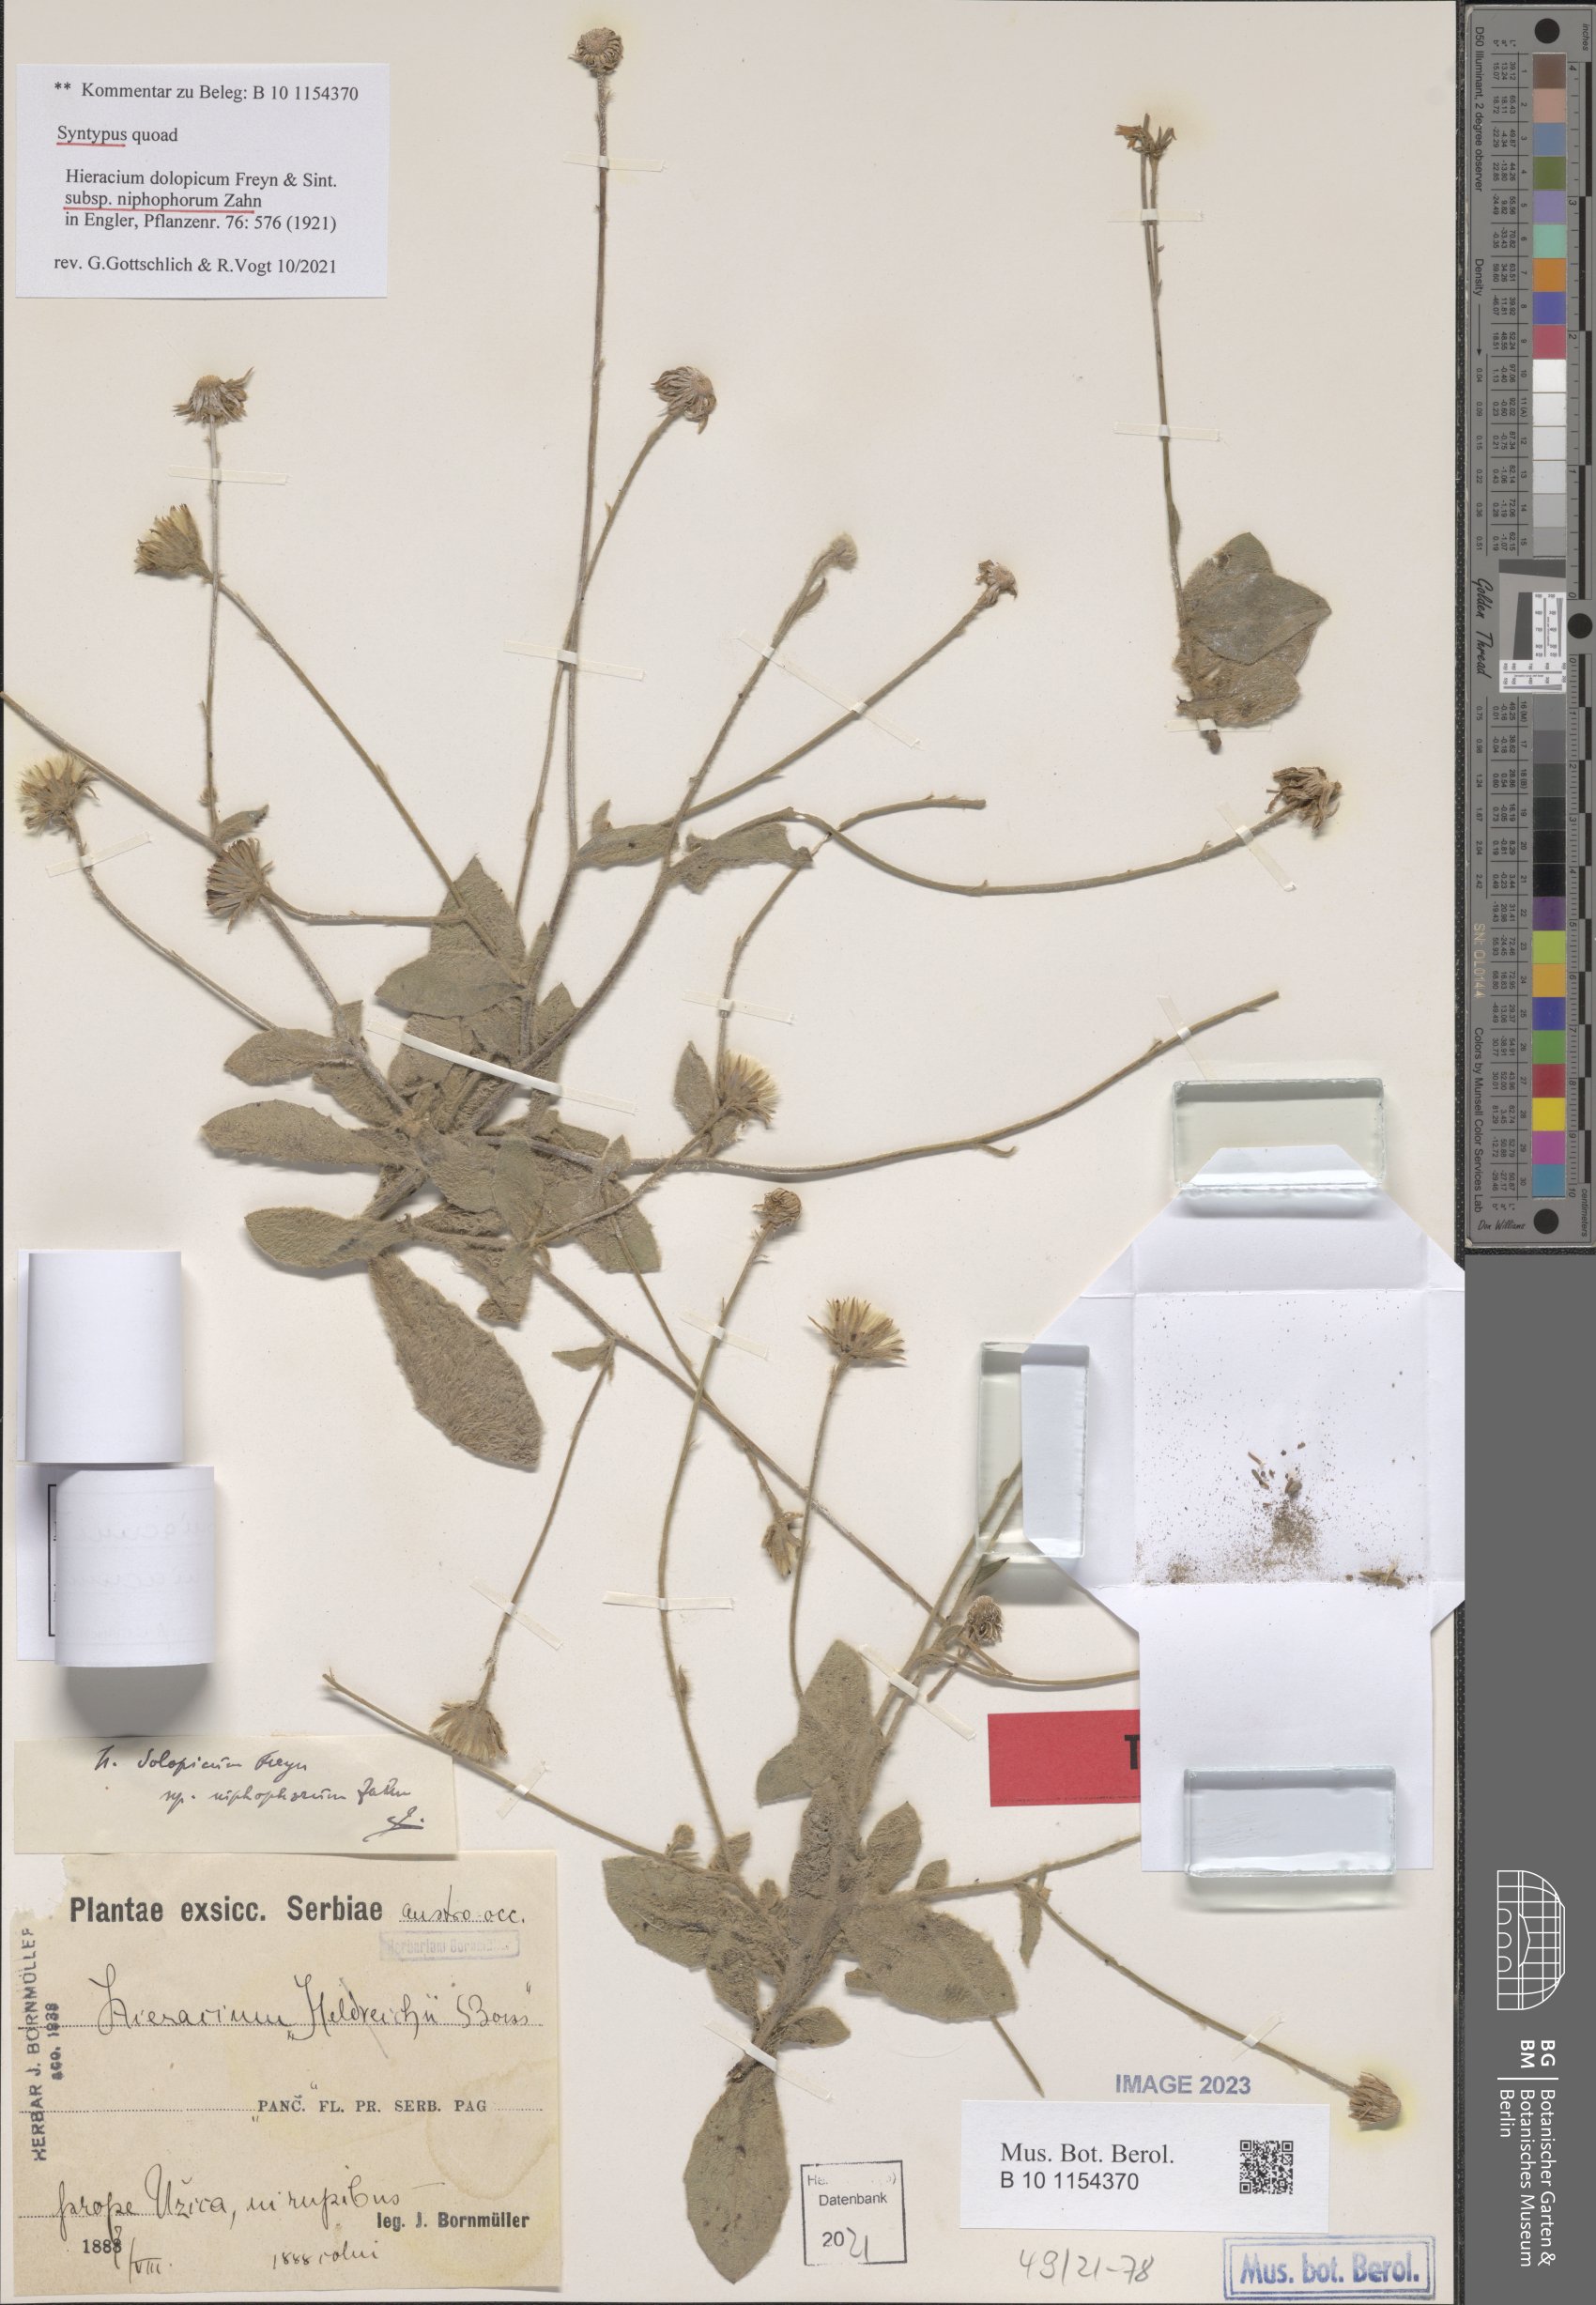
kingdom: Plantae
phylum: Tracheophyta
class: Magnoliopsida
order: Asterales
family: Asteraceae
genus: Hieracium
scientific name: Hieracium bosniacum
